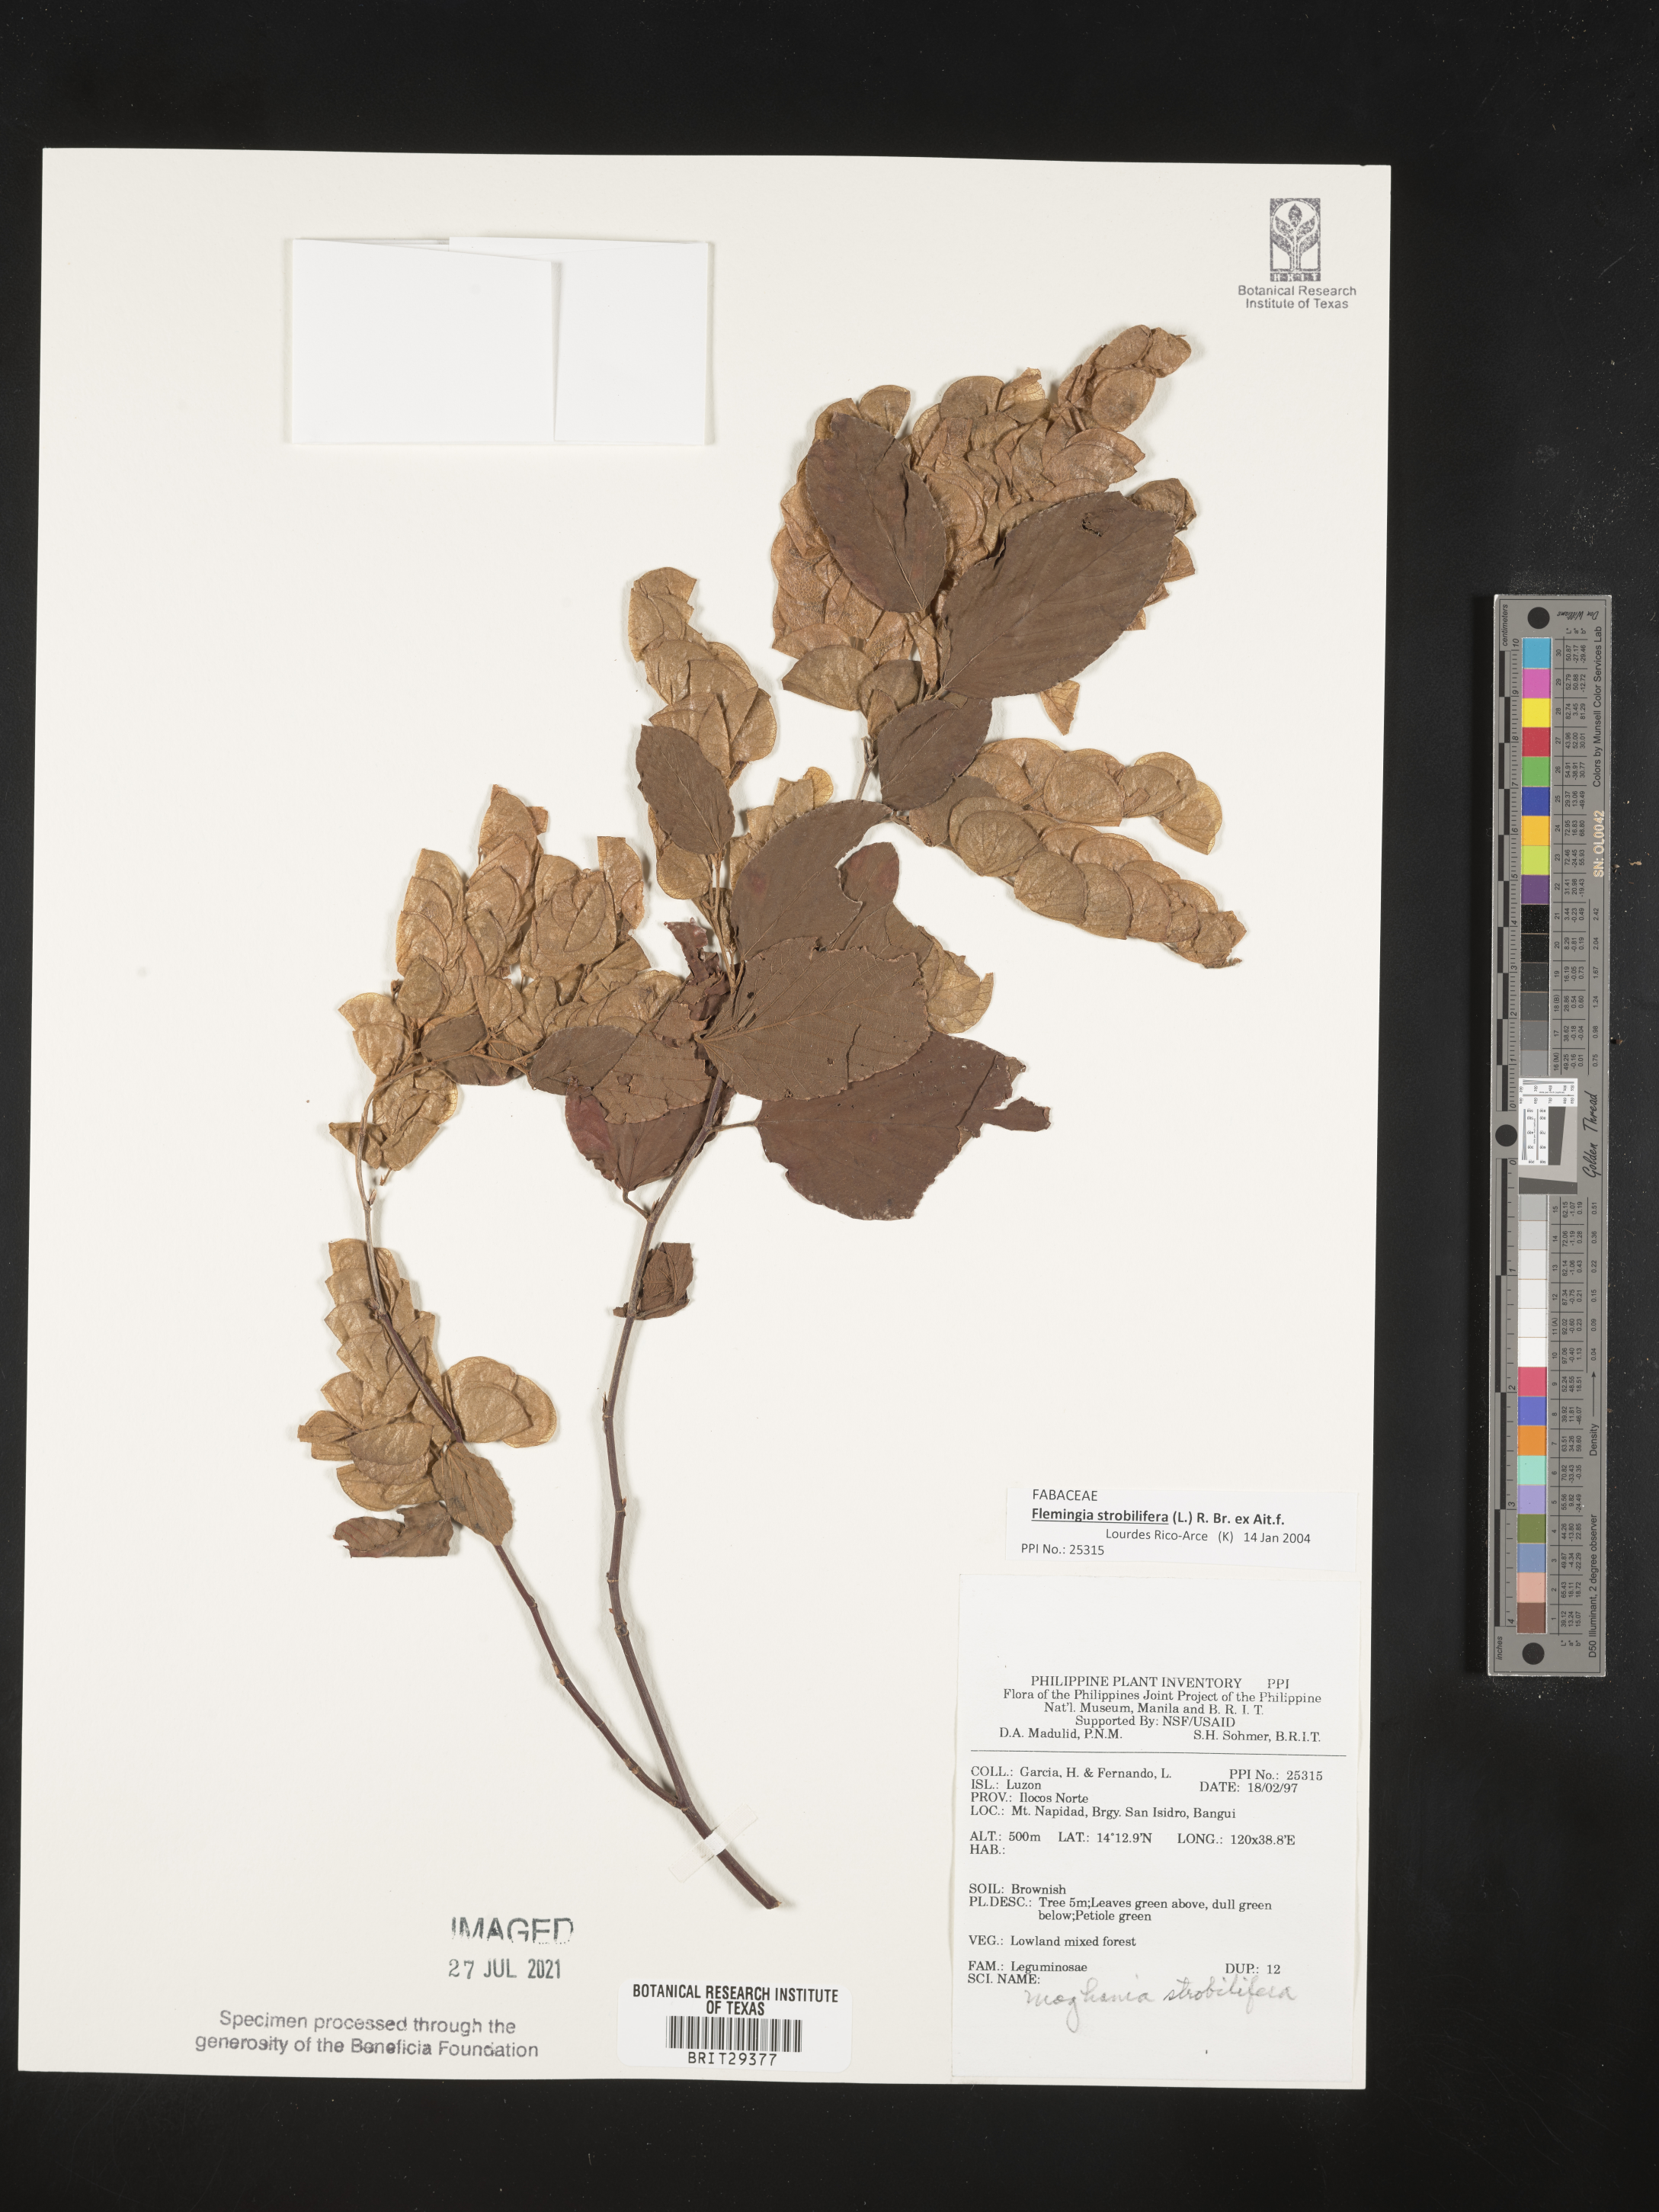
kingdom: Plantae
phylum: Tracheophyta
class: Magnoliopsida
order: Fabales
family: Fabaceae
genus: Flemingia
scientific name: Flemingia strobilifera
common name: Wild hops
